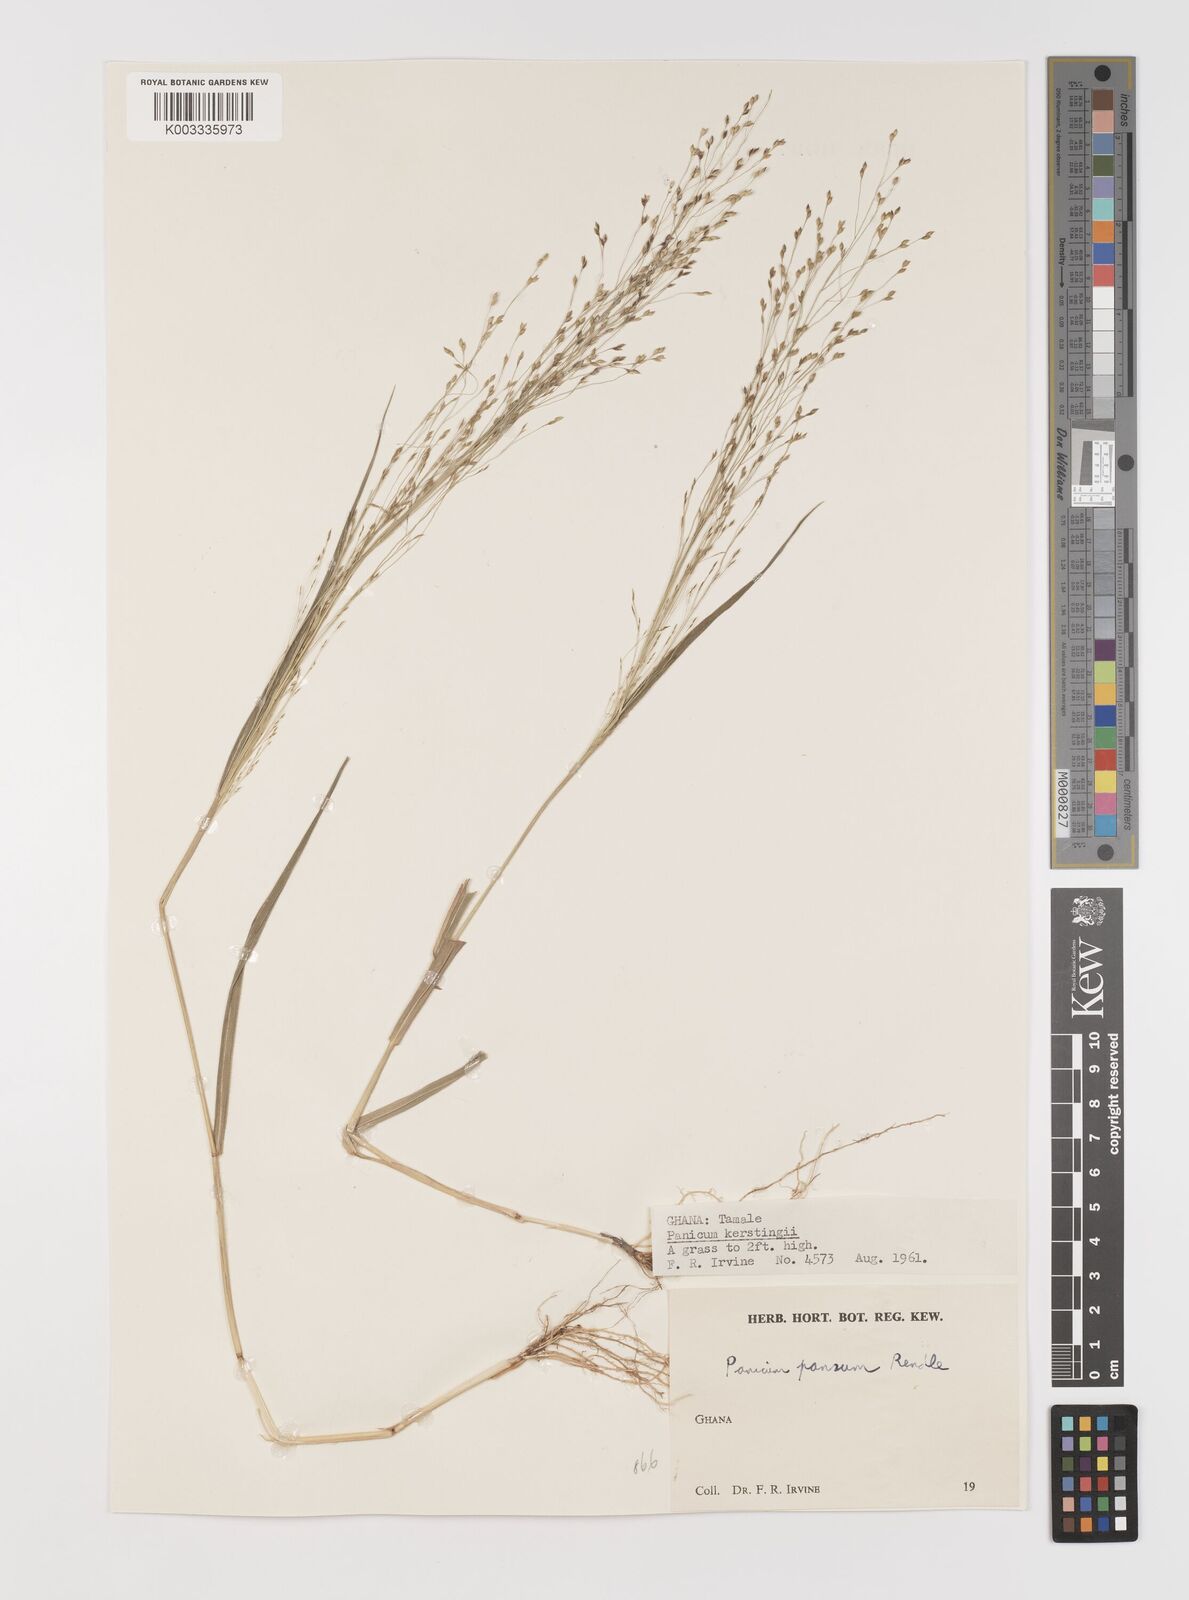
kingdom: Plantae
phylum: Tracheophyta
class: Liliopsida
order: Poales
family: Poaceae
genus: Panicum
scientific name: Panicum pansum
